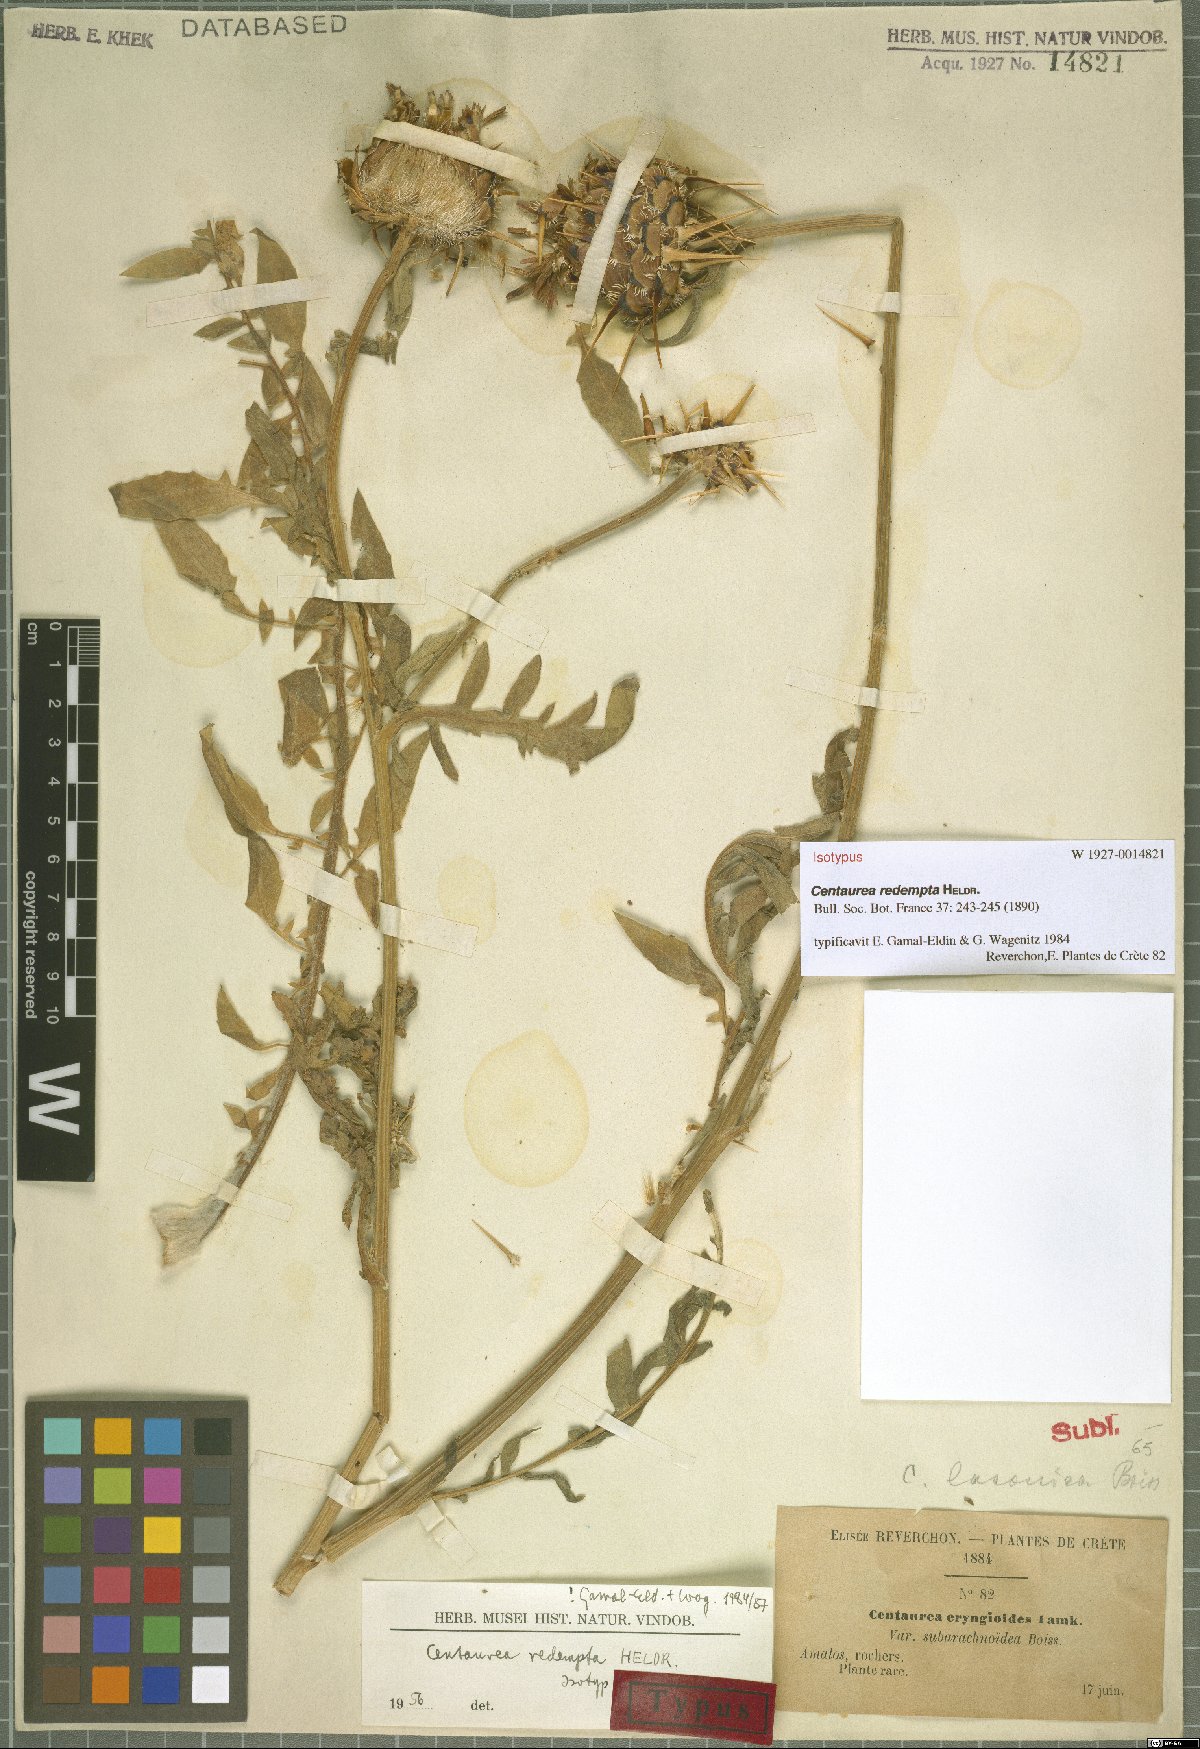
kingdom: Plantae
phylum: Tracheophyta
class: Magnoliopsida
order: Asterales
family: Asteraceae
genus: Centaurea
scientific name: Centaurea redempta
